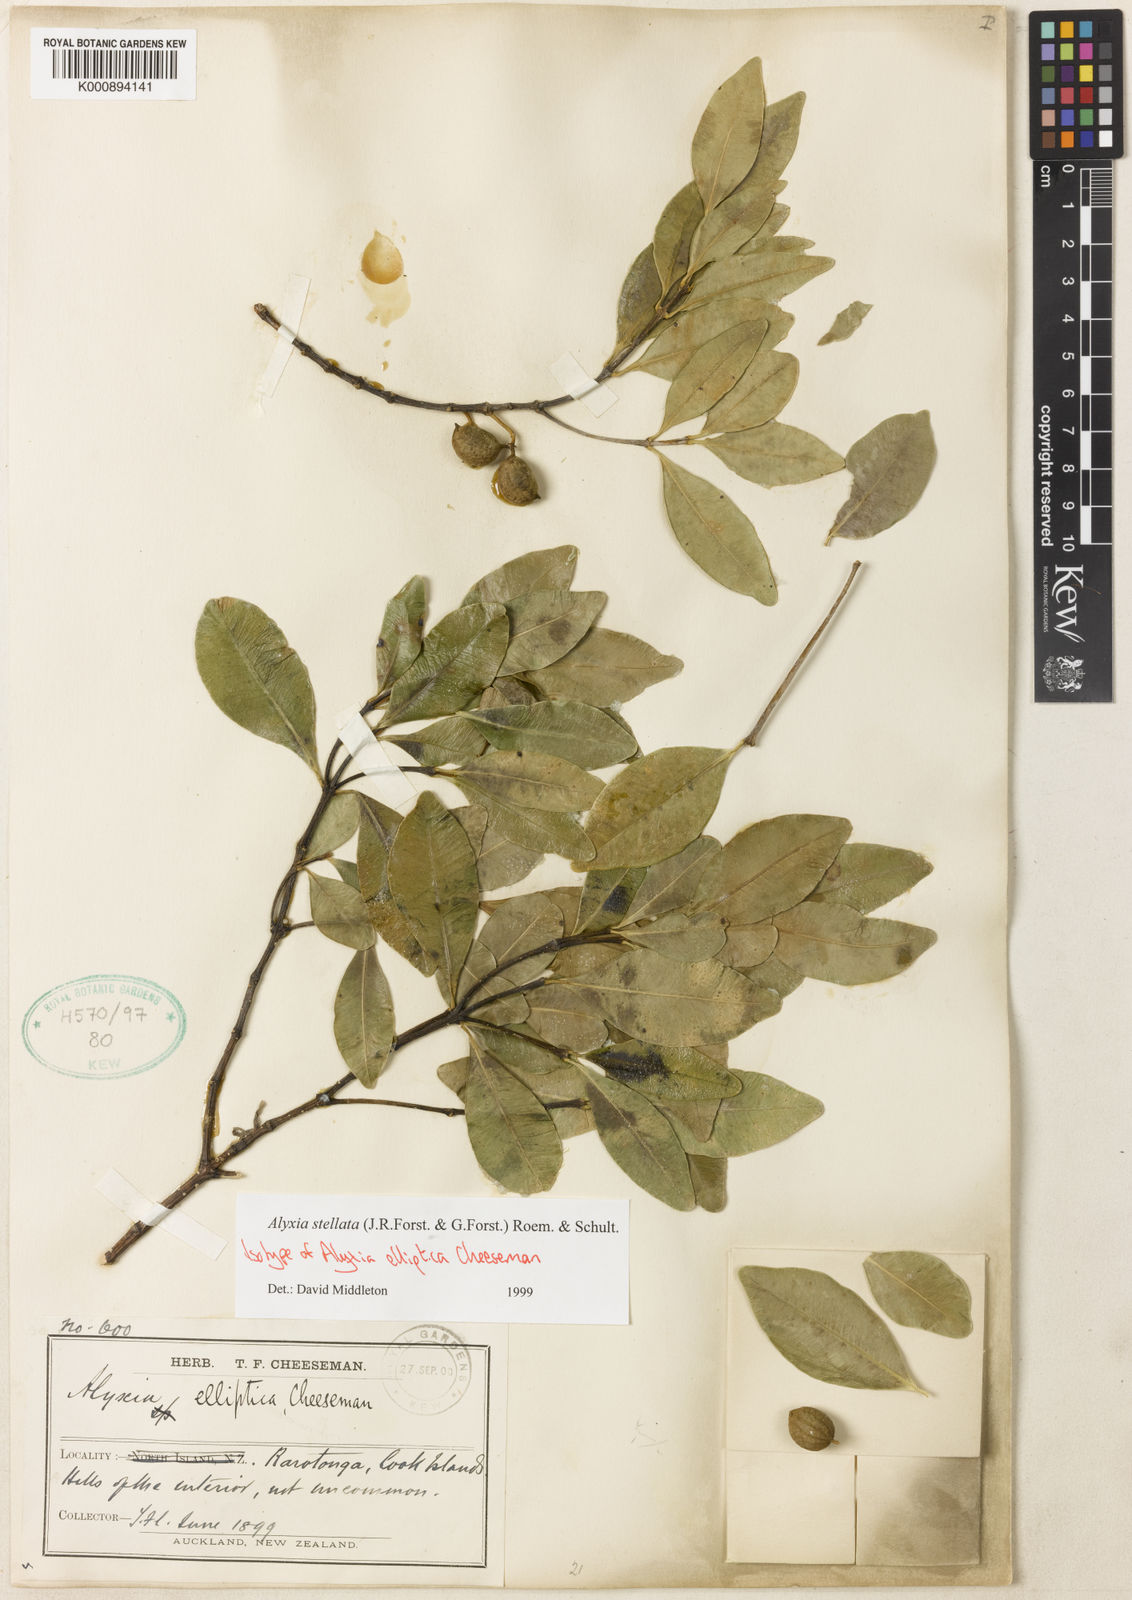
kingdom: Plantae
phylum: Tracheophyta
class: Magnoliopsida
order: Gentianales
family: Apocynaceae
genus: Alyxia
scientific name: Alyxia stellata
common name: Maile
